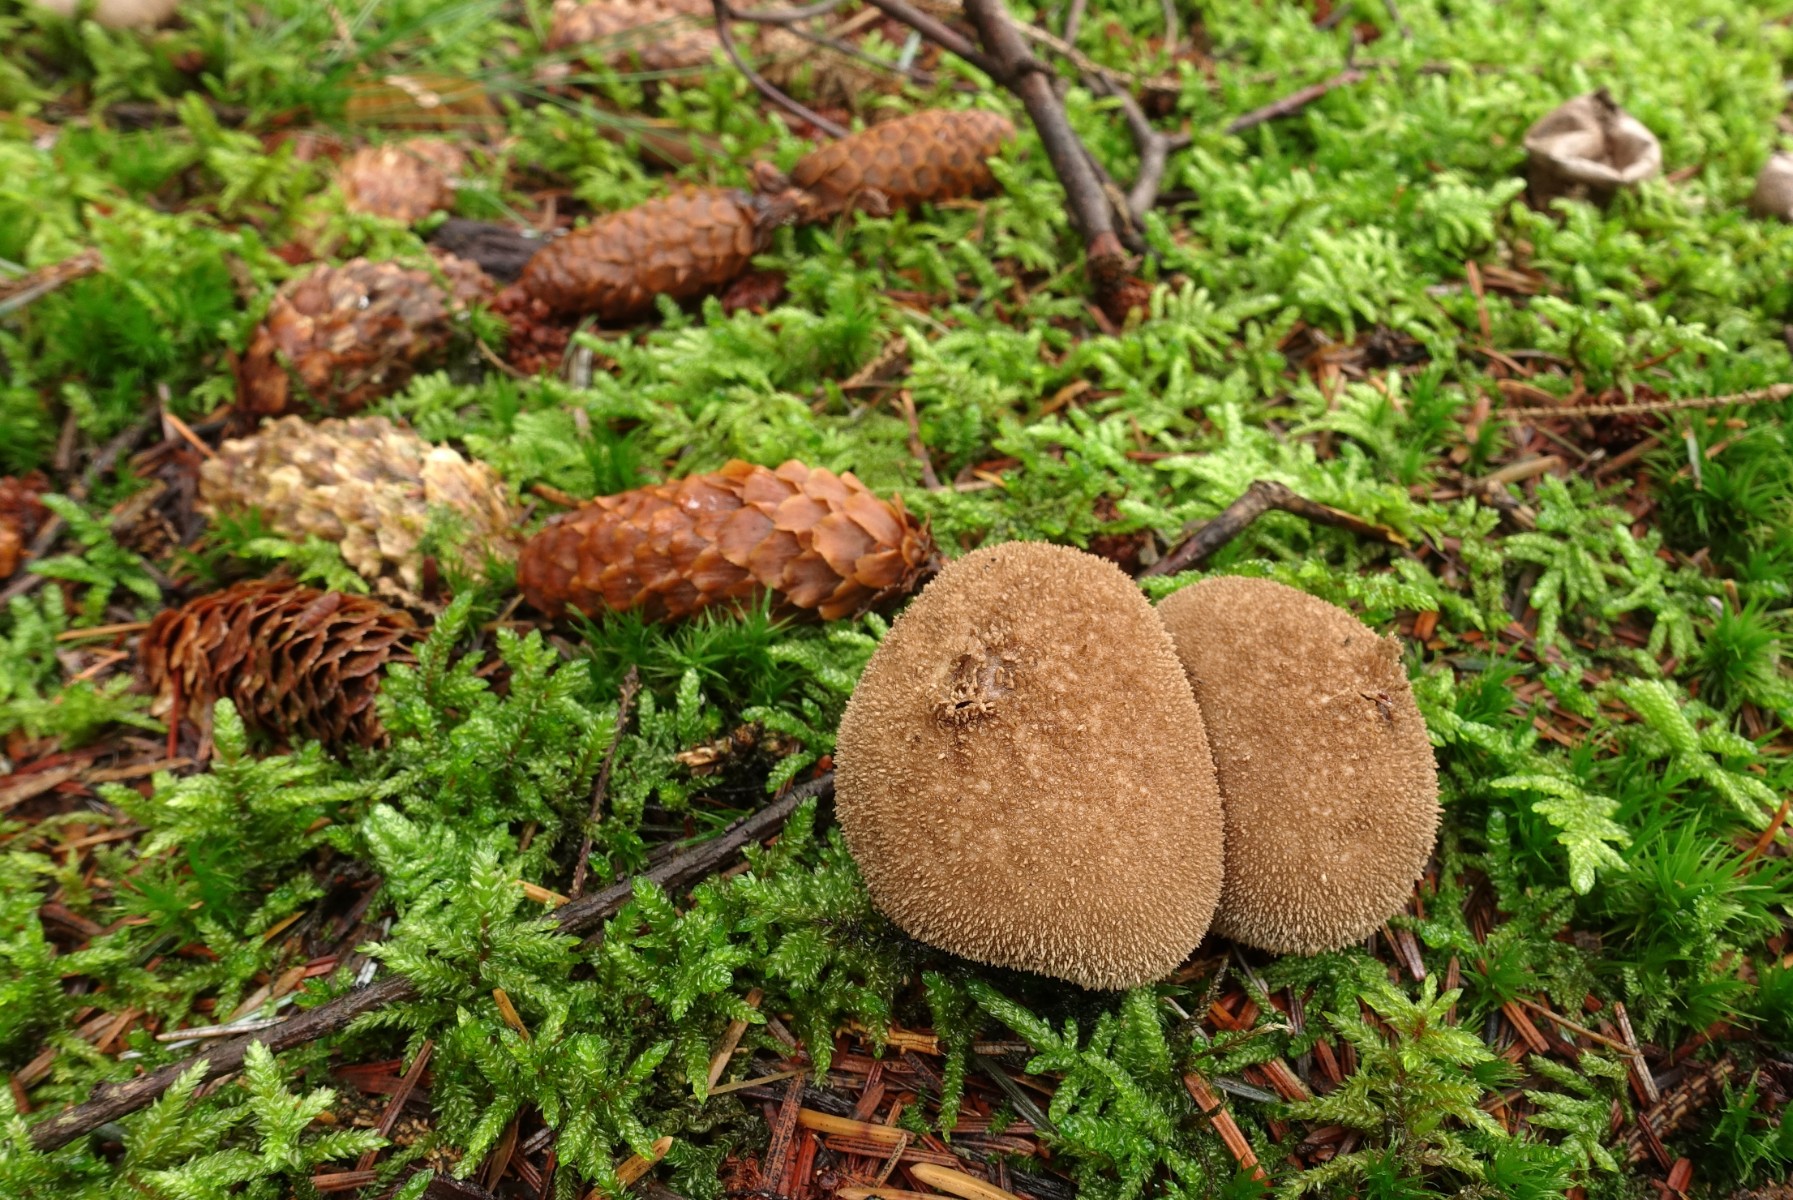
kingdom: Fungi
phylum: Basidiomycota
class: Agaricomycetes
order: Agaricales
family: Lycoperdaceae
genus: Lycoperdon
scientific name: Lycoperdon nigrescens
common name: sortagtig støvbold
